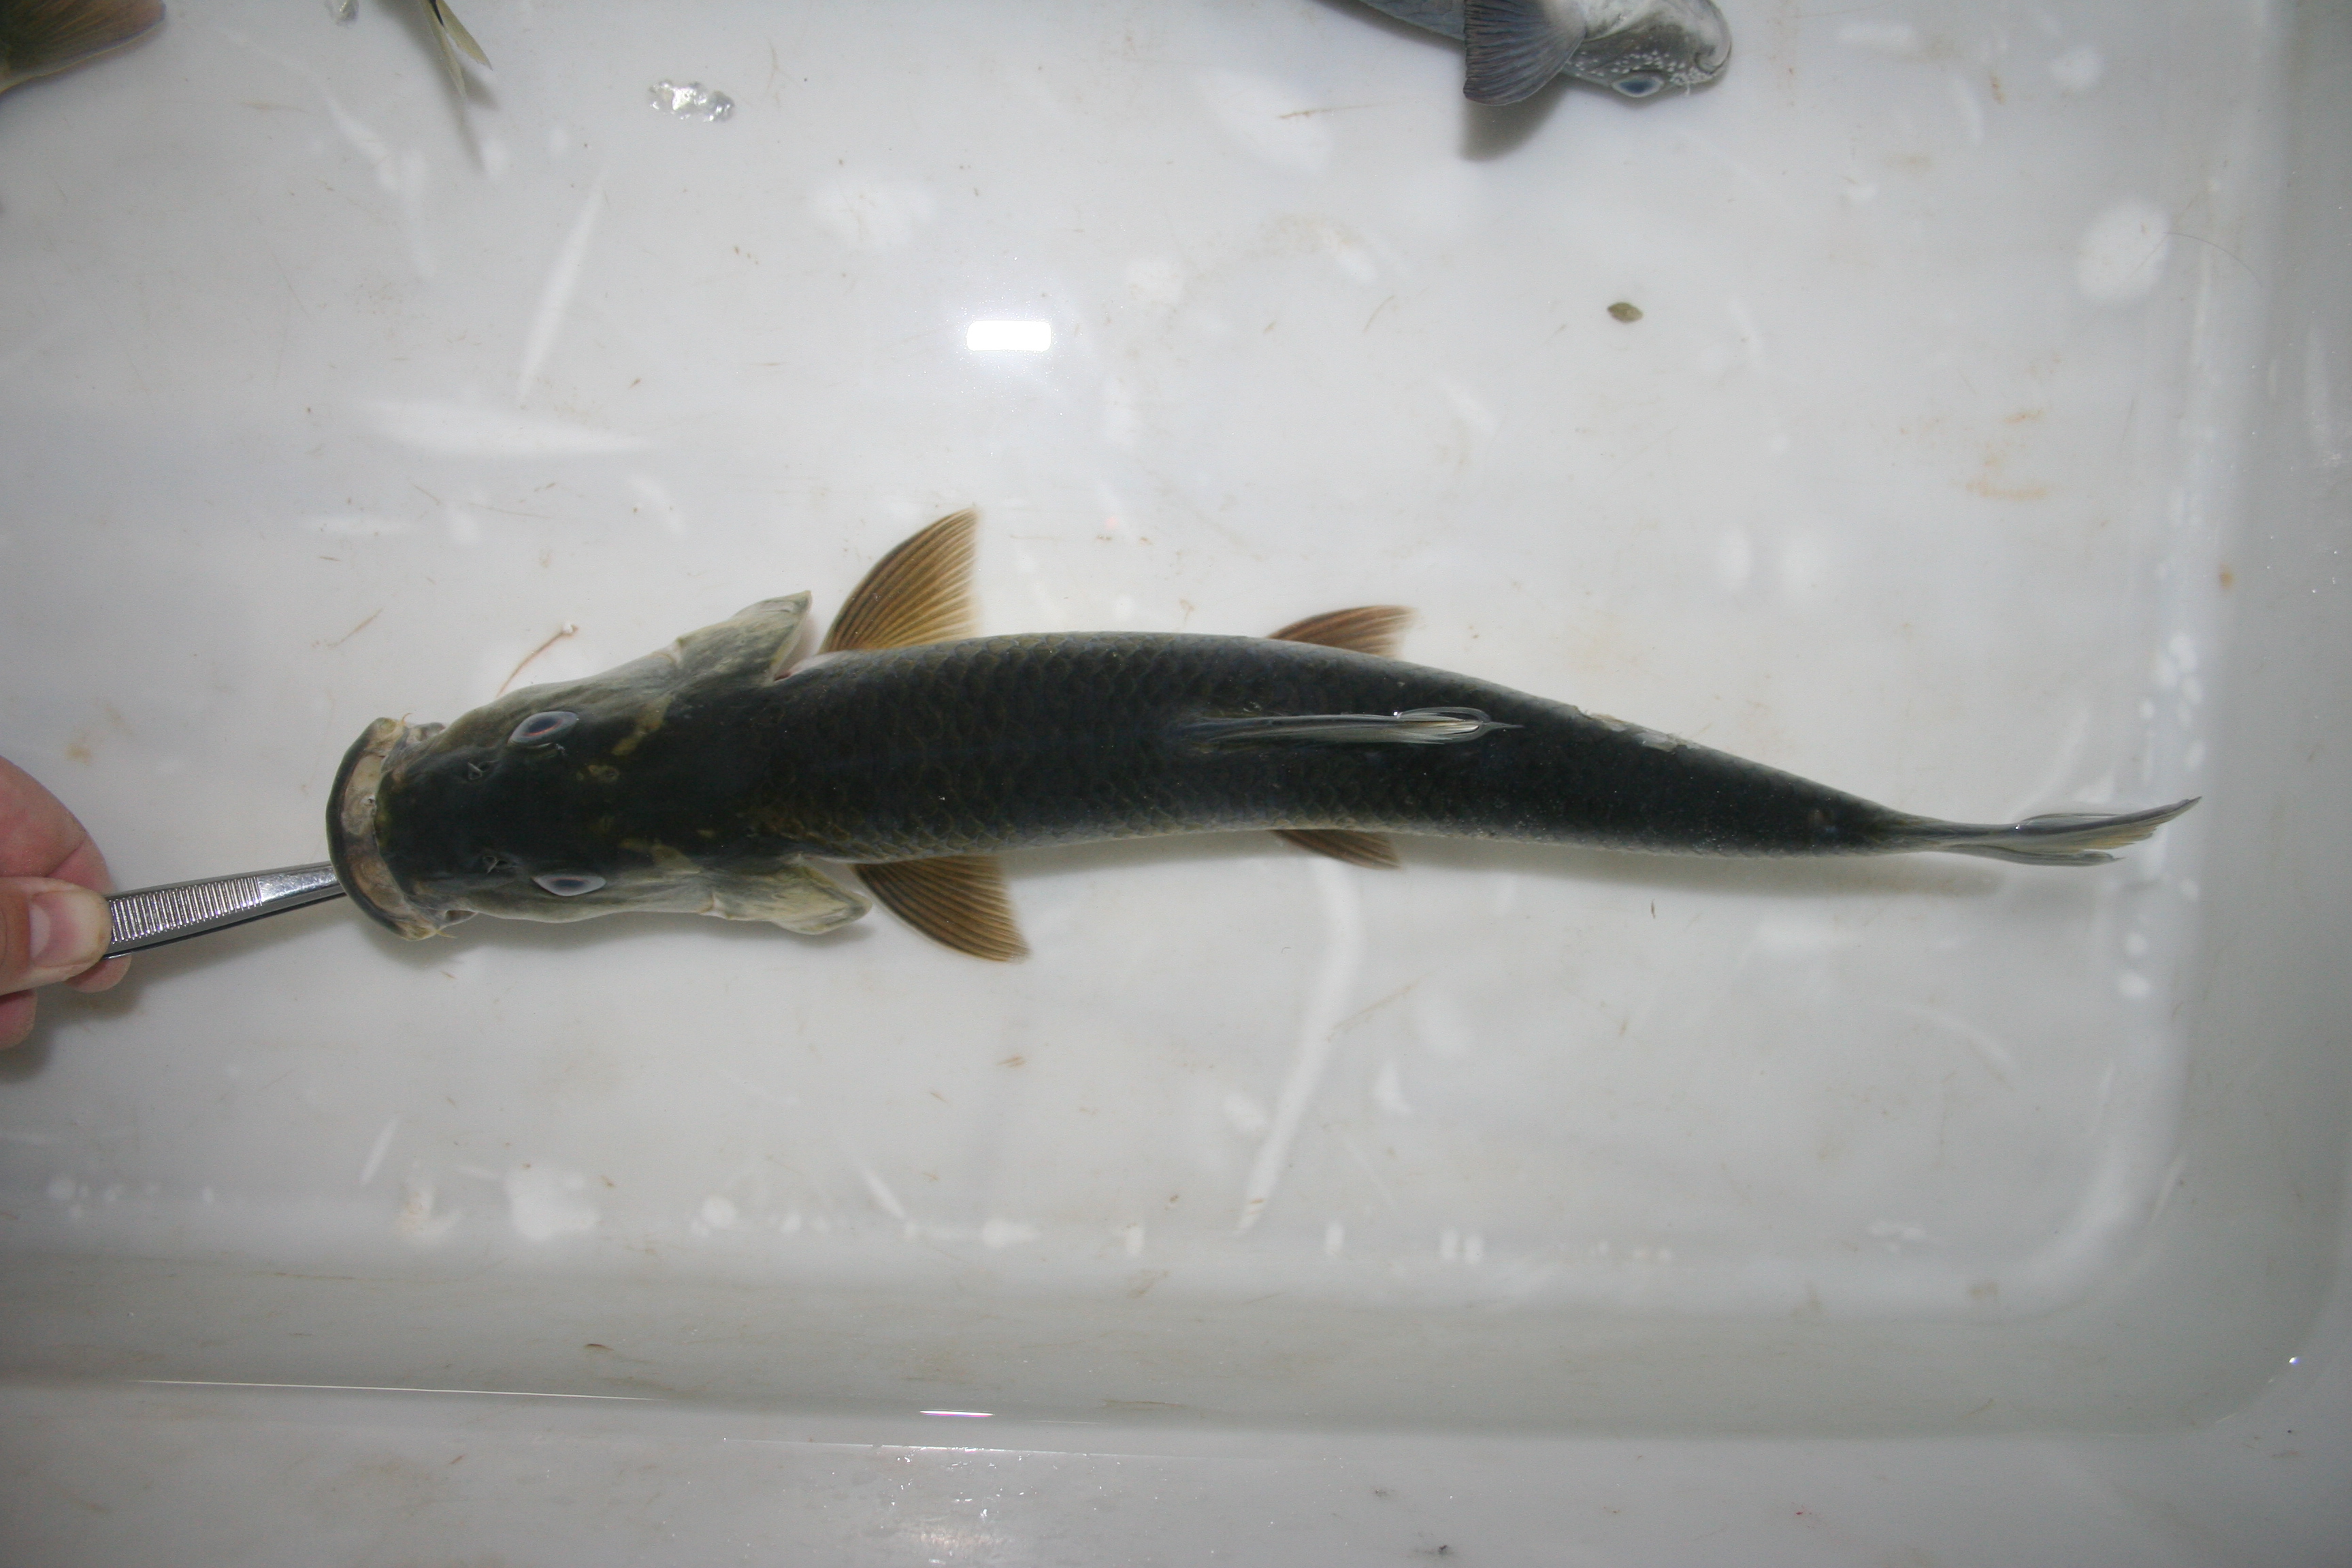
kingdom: Animalia
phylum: Chordata
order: Cypriniformes
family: Cyprinidae
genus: Labeobarbus
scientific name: Labeobarbus lucius
